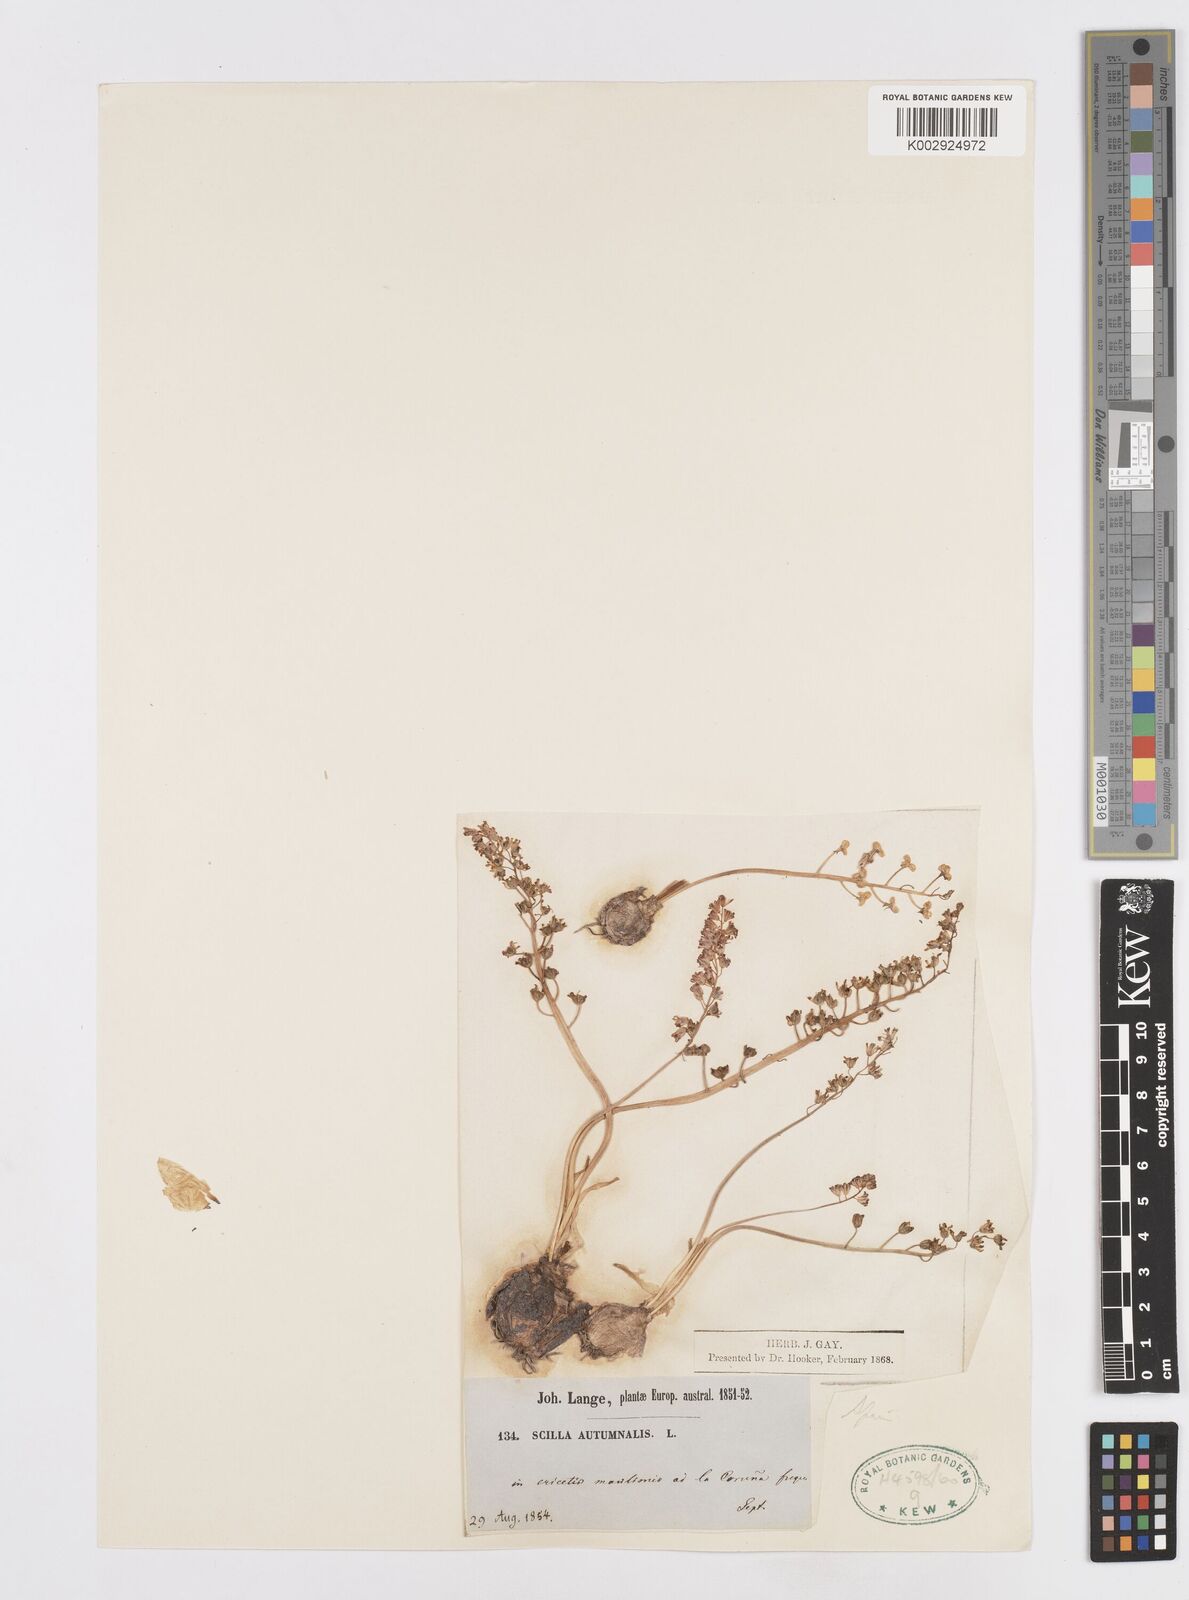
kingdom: Plantae
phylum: Tracheophyta
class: Liliopsida
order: Asparagales
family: Asparagaceae
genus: Prospero
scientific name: Prospero autumnale
